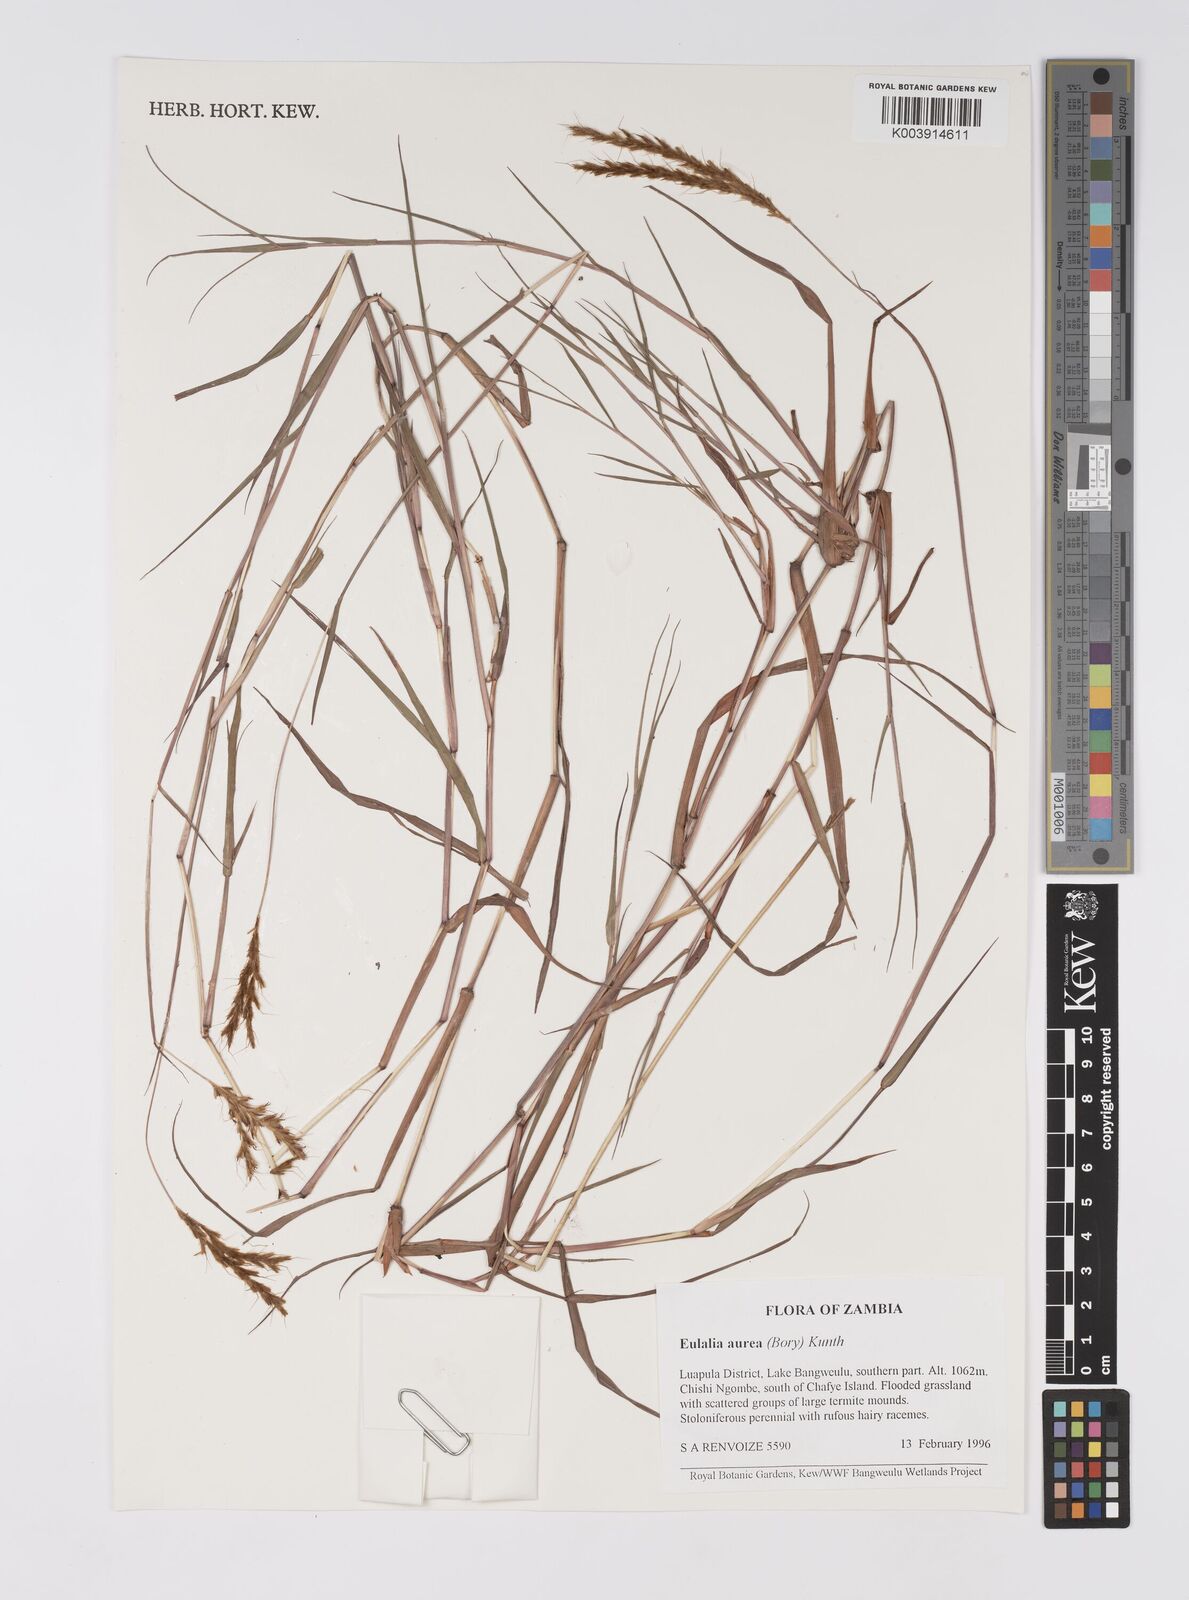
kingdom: Plantae
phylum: Tracheophyta
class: Liliopsida
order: Poales
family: Poaceae
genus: Eulalia
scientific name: Eulalia aurea
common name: Silky browntop
